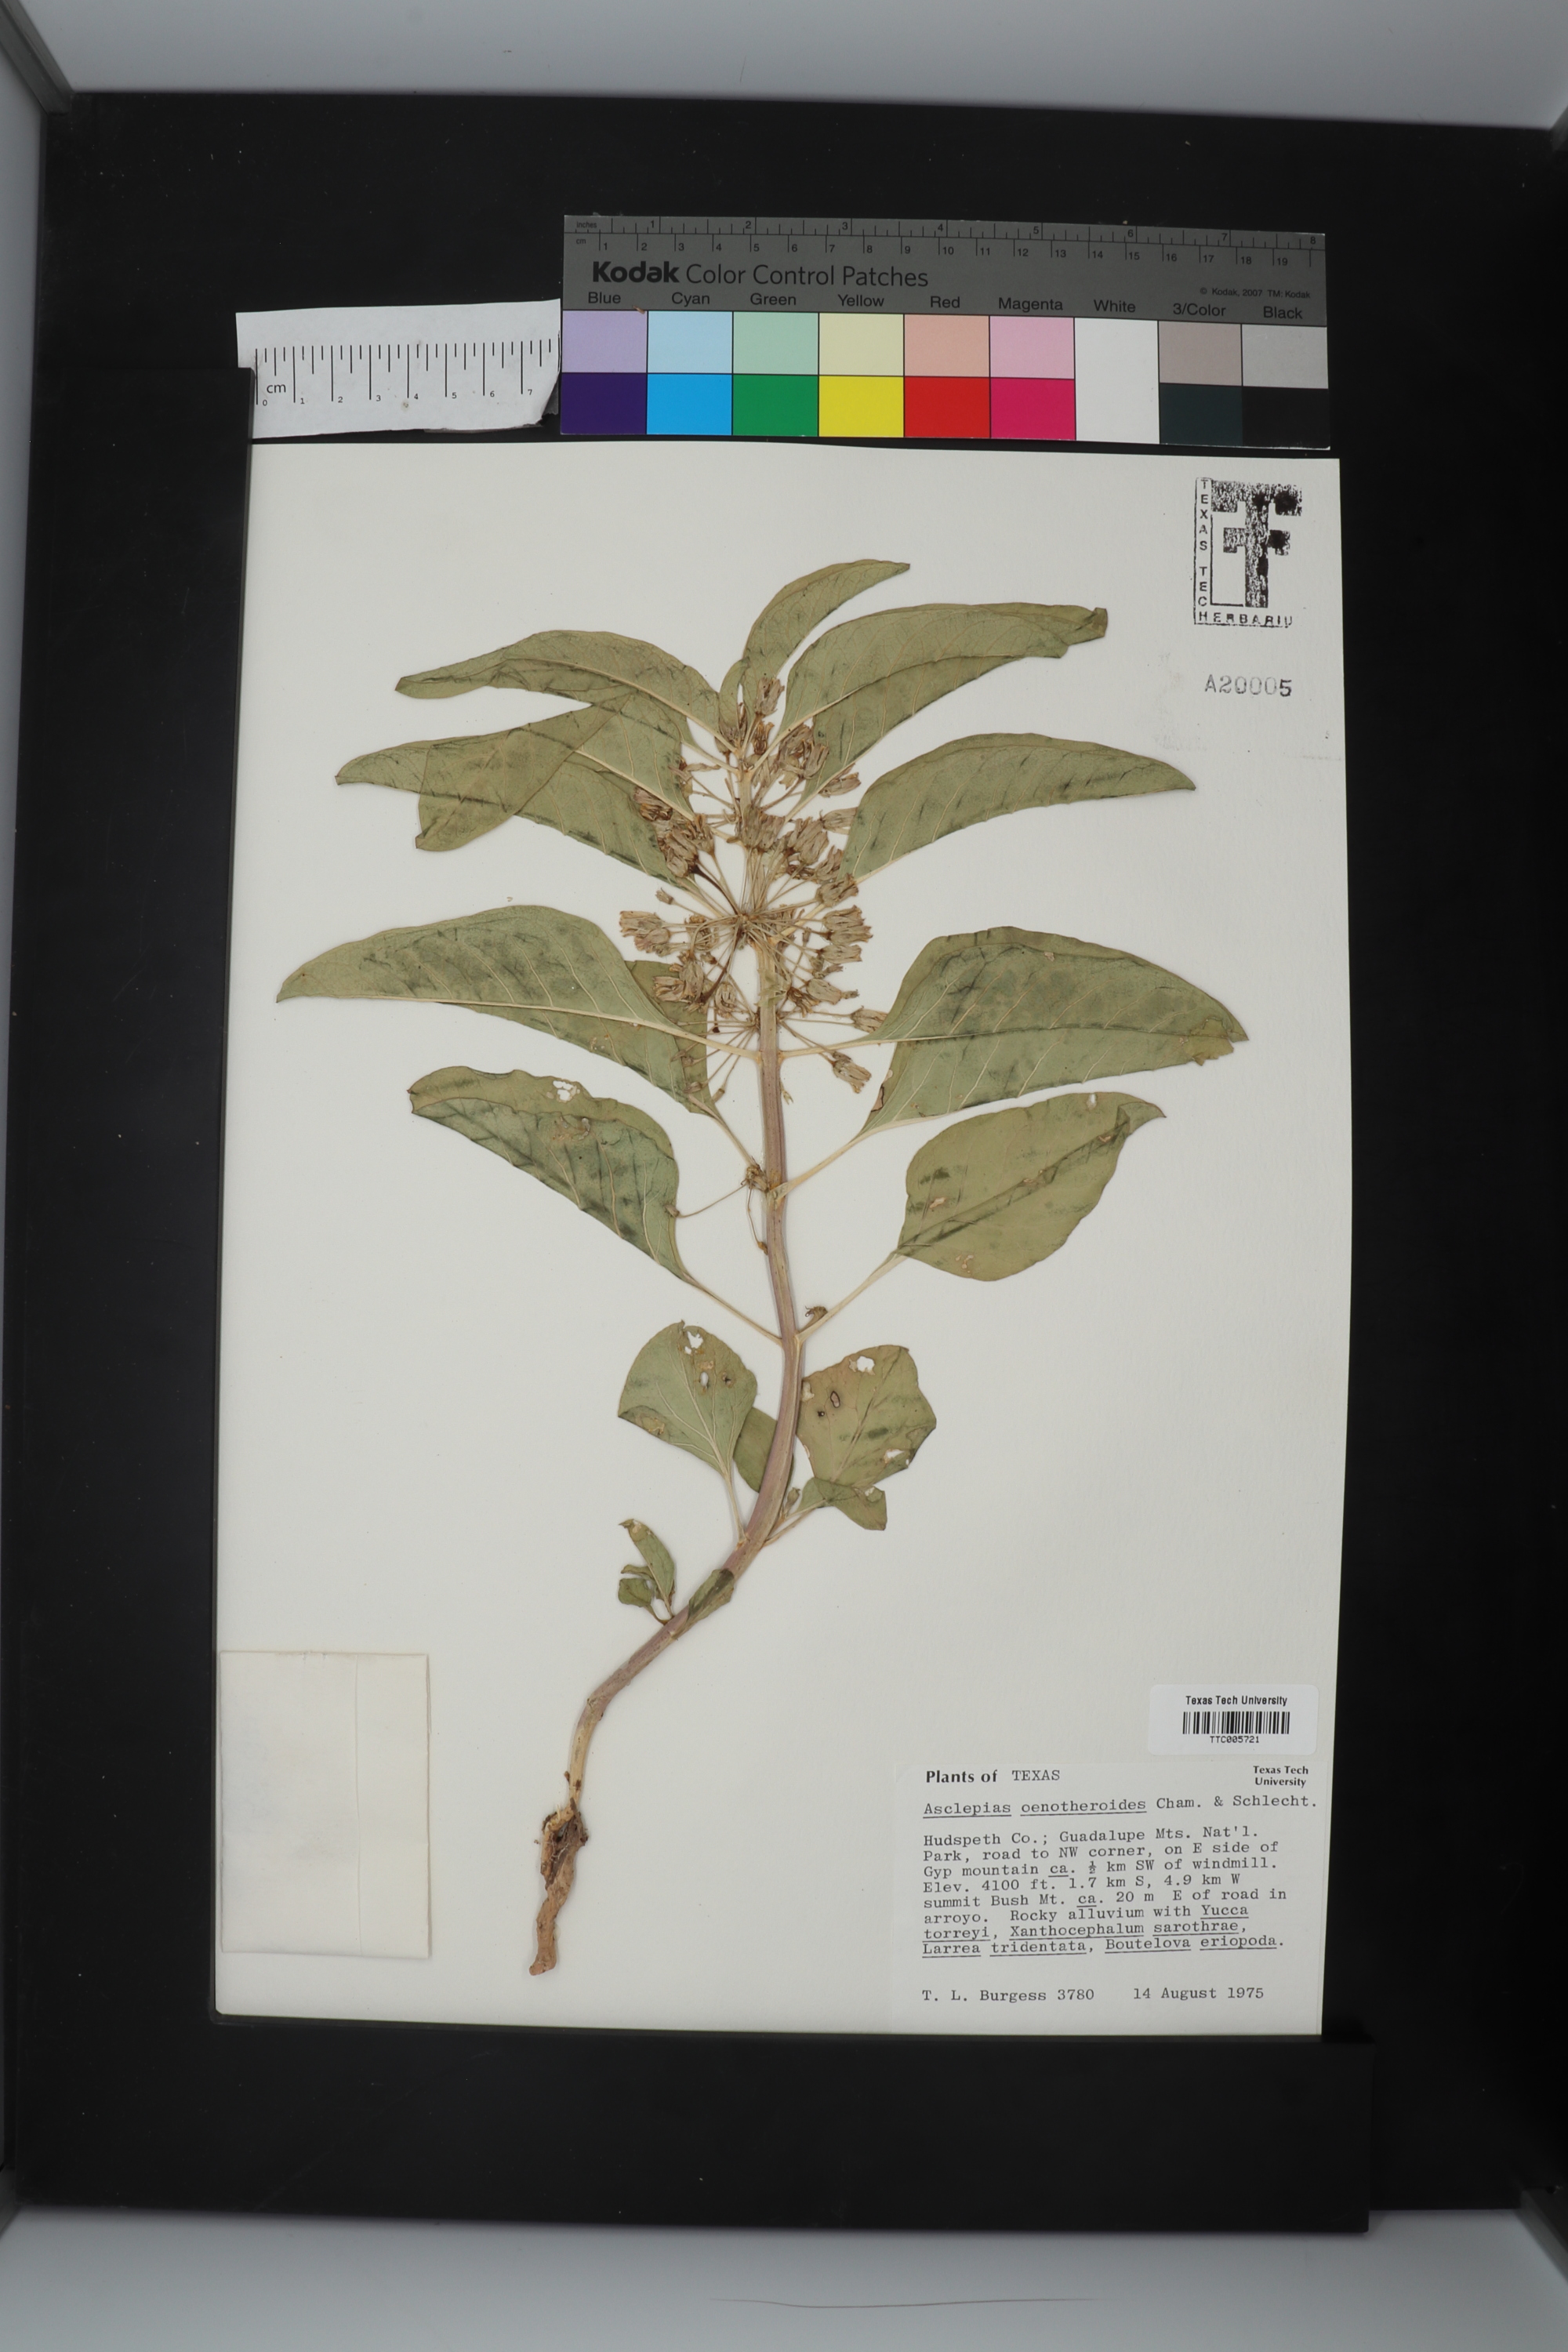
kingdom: Plantae
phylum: Tracheophyta
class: Magnoliopsida
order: Gentianales
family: Apocynaceae
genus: Asclepias
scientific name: Asclepias oenotheroides
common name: Zizotes milkweed
